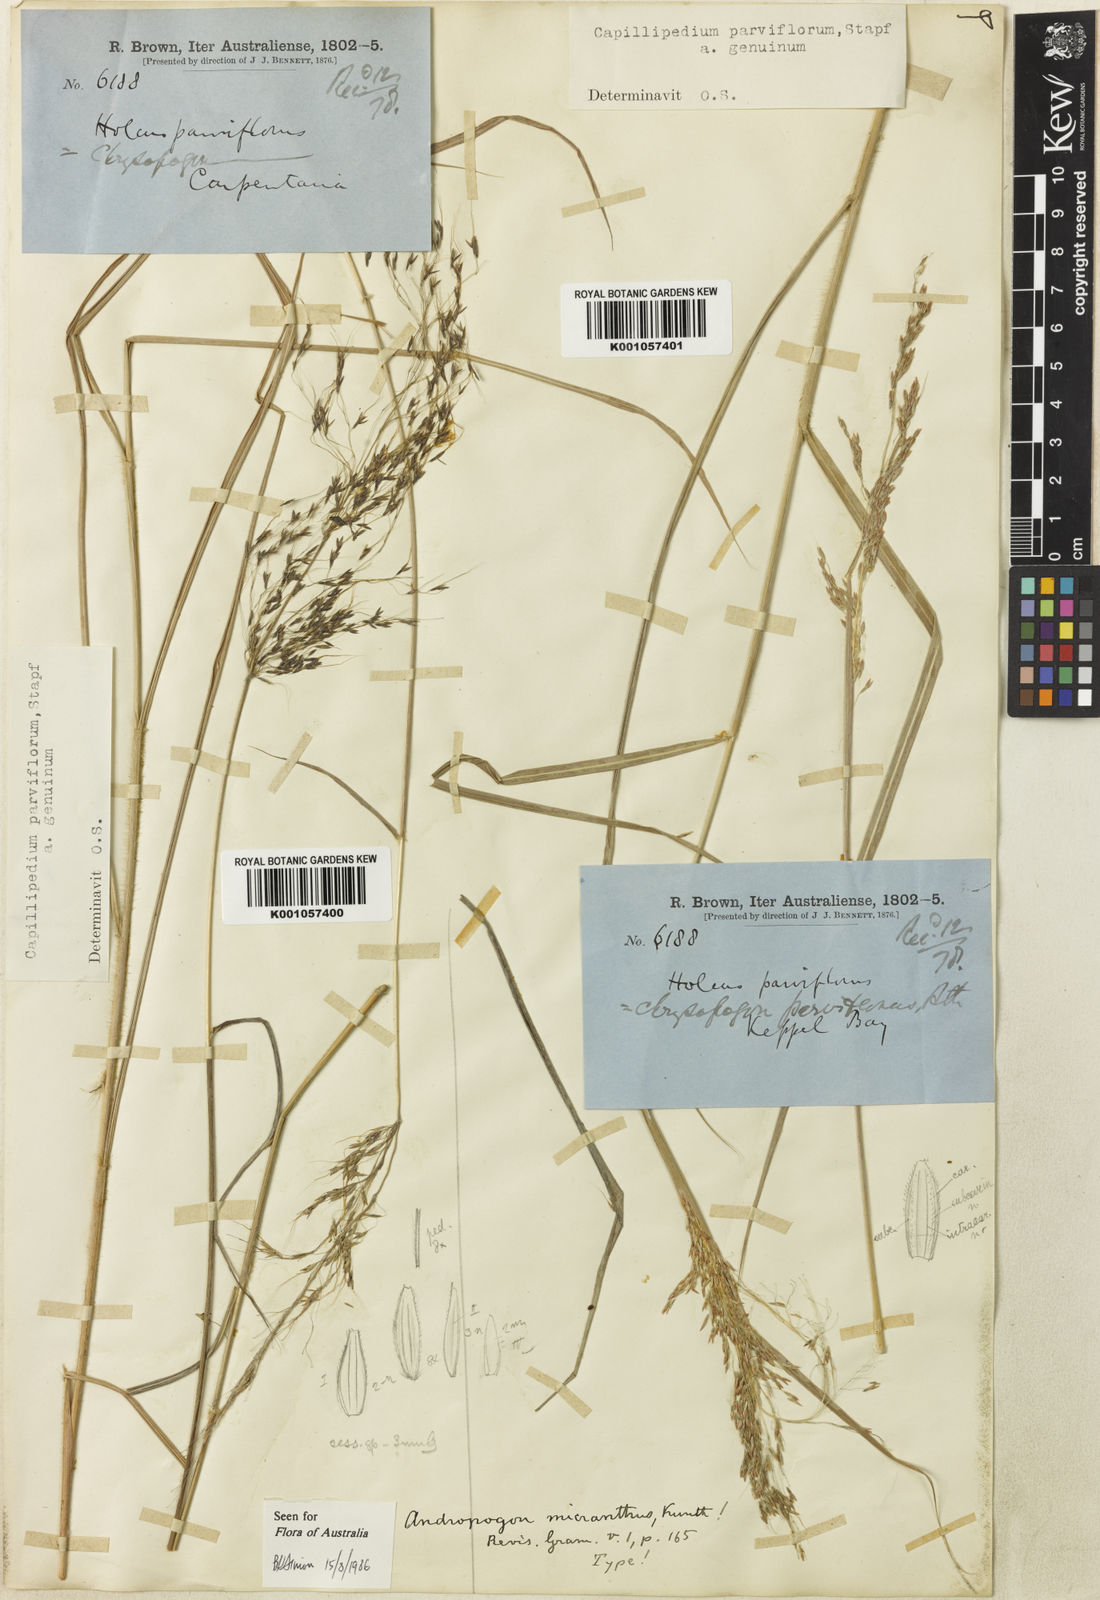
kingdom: Plantae
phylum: Tracheophyta
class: Liliopsida
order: Poales
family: Poaceae
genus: Capillipedium
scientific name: Capillipedium parviflorum
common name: Golden-beard
